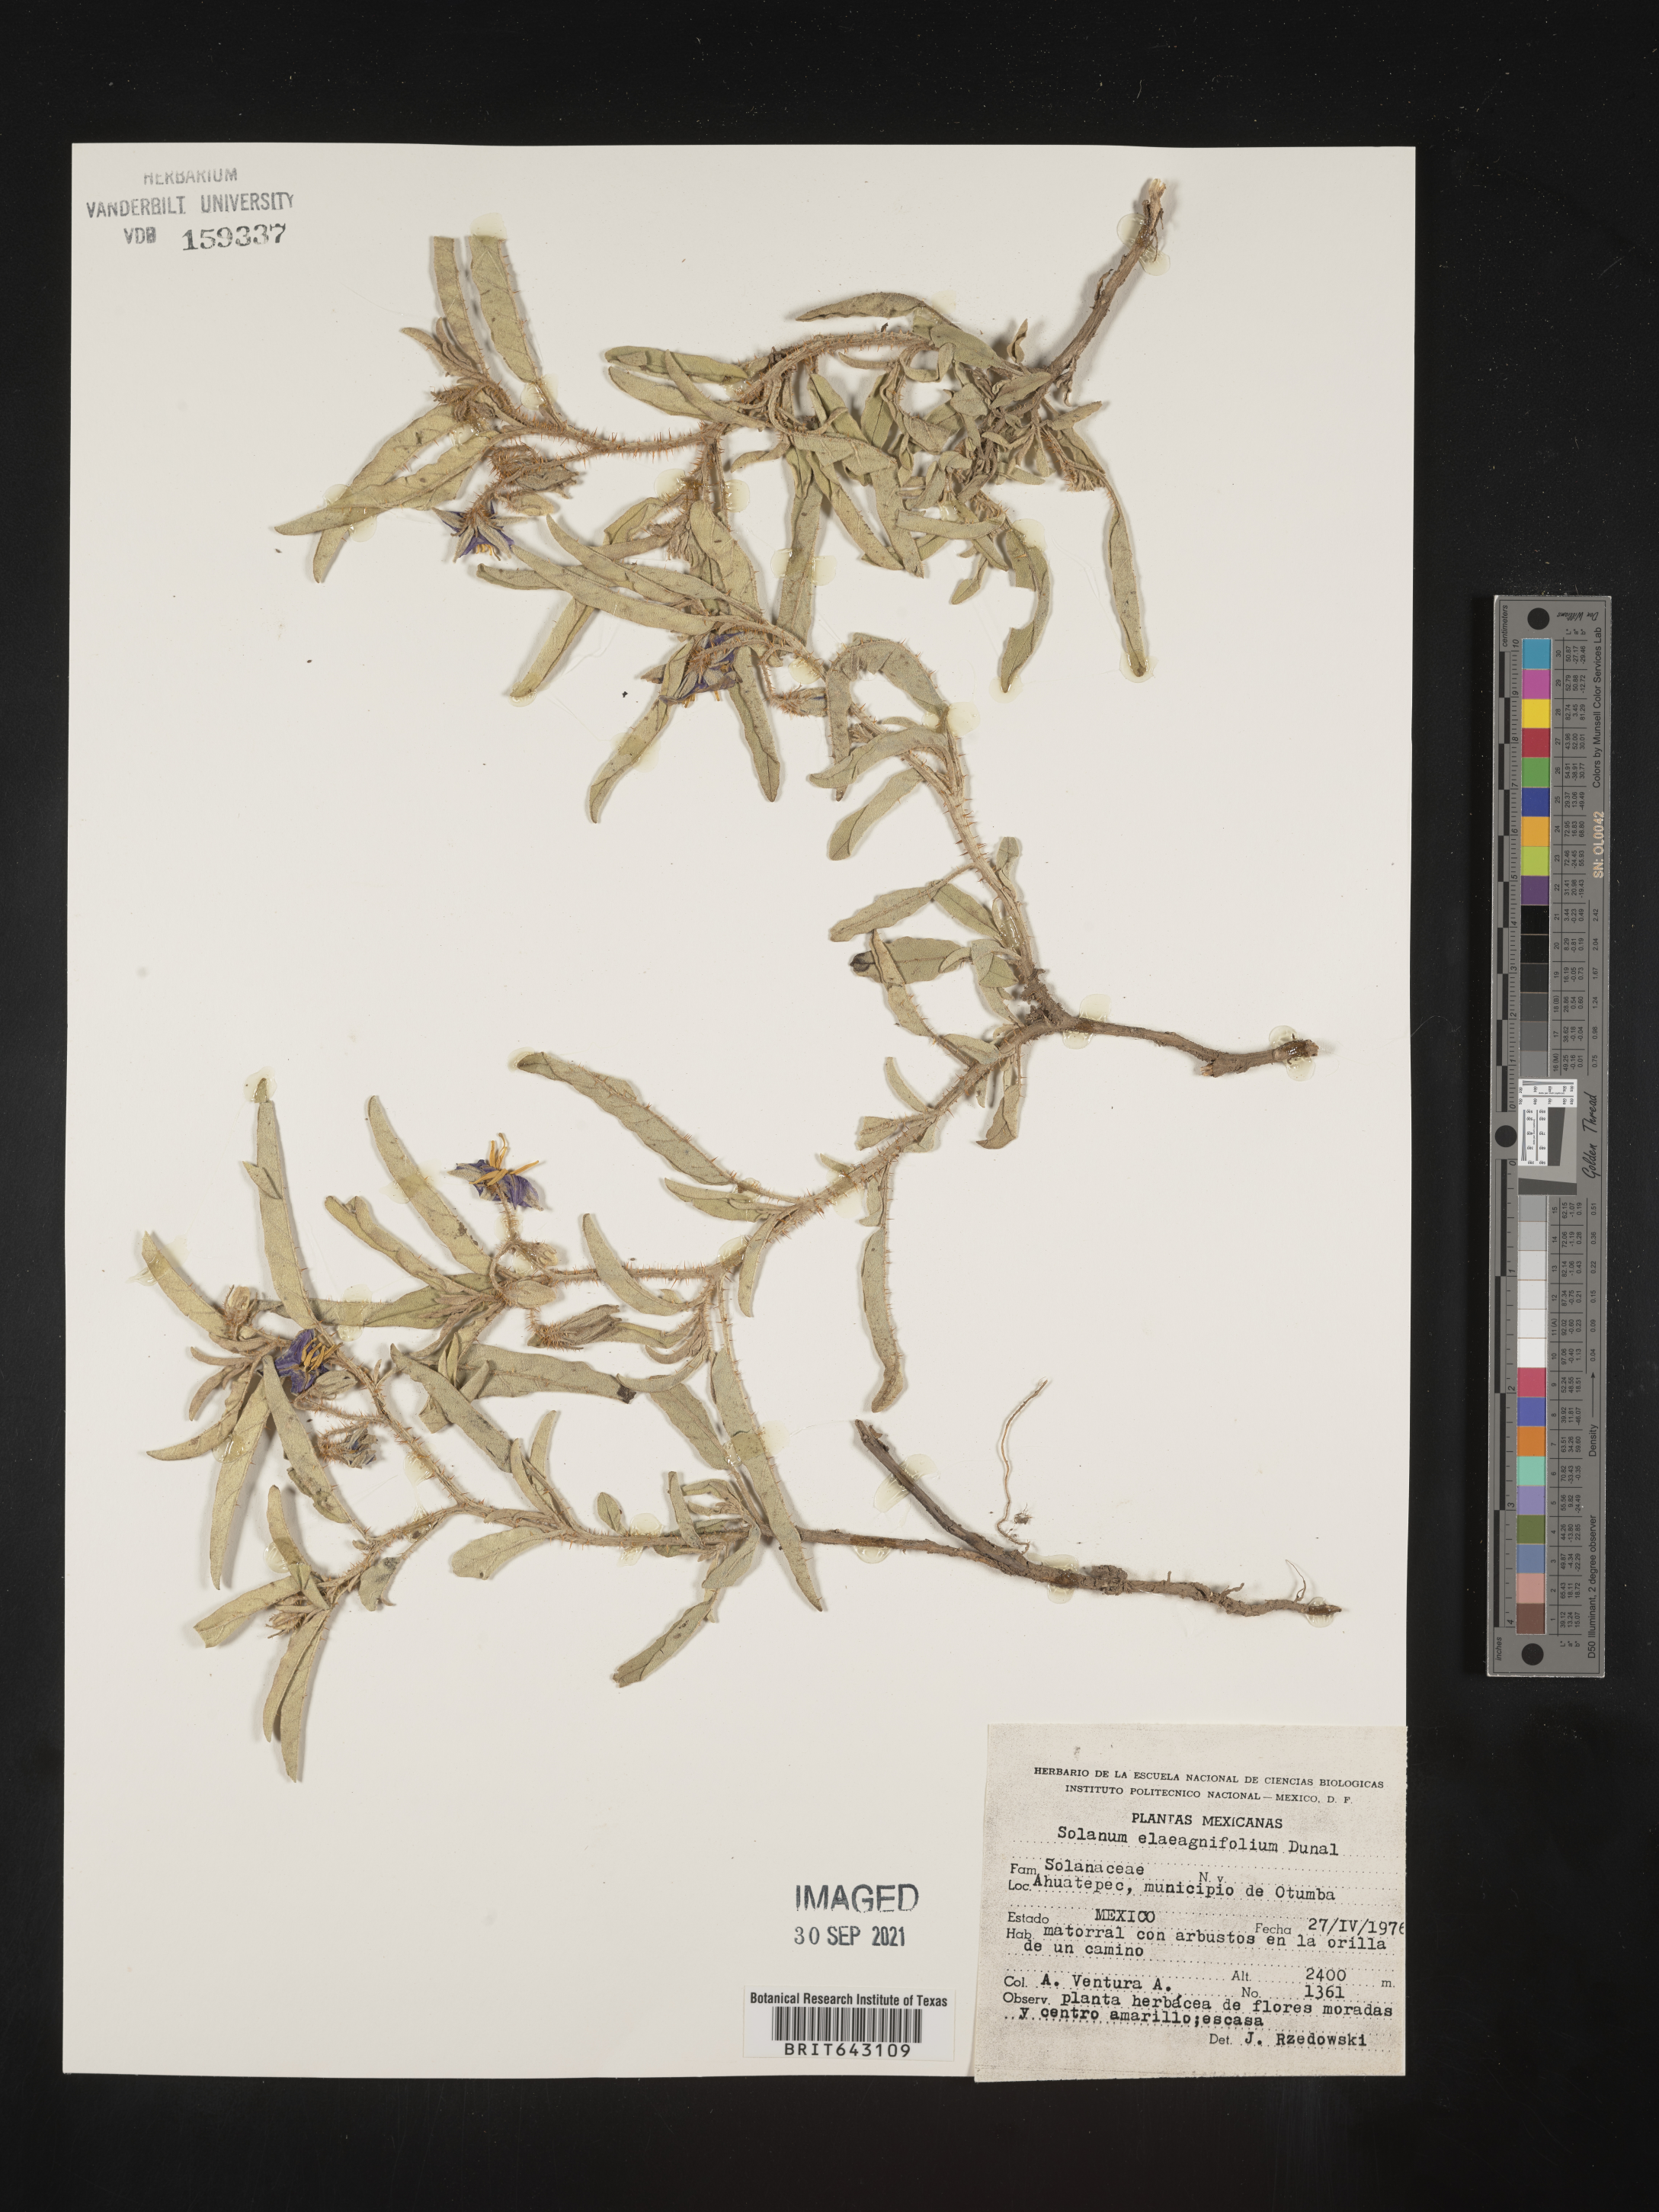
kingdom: Plantae
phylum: Tracheophyta
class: Magnoliopsida
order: Solanales
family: Solanaceae
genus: Solanum
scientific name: Solanum
